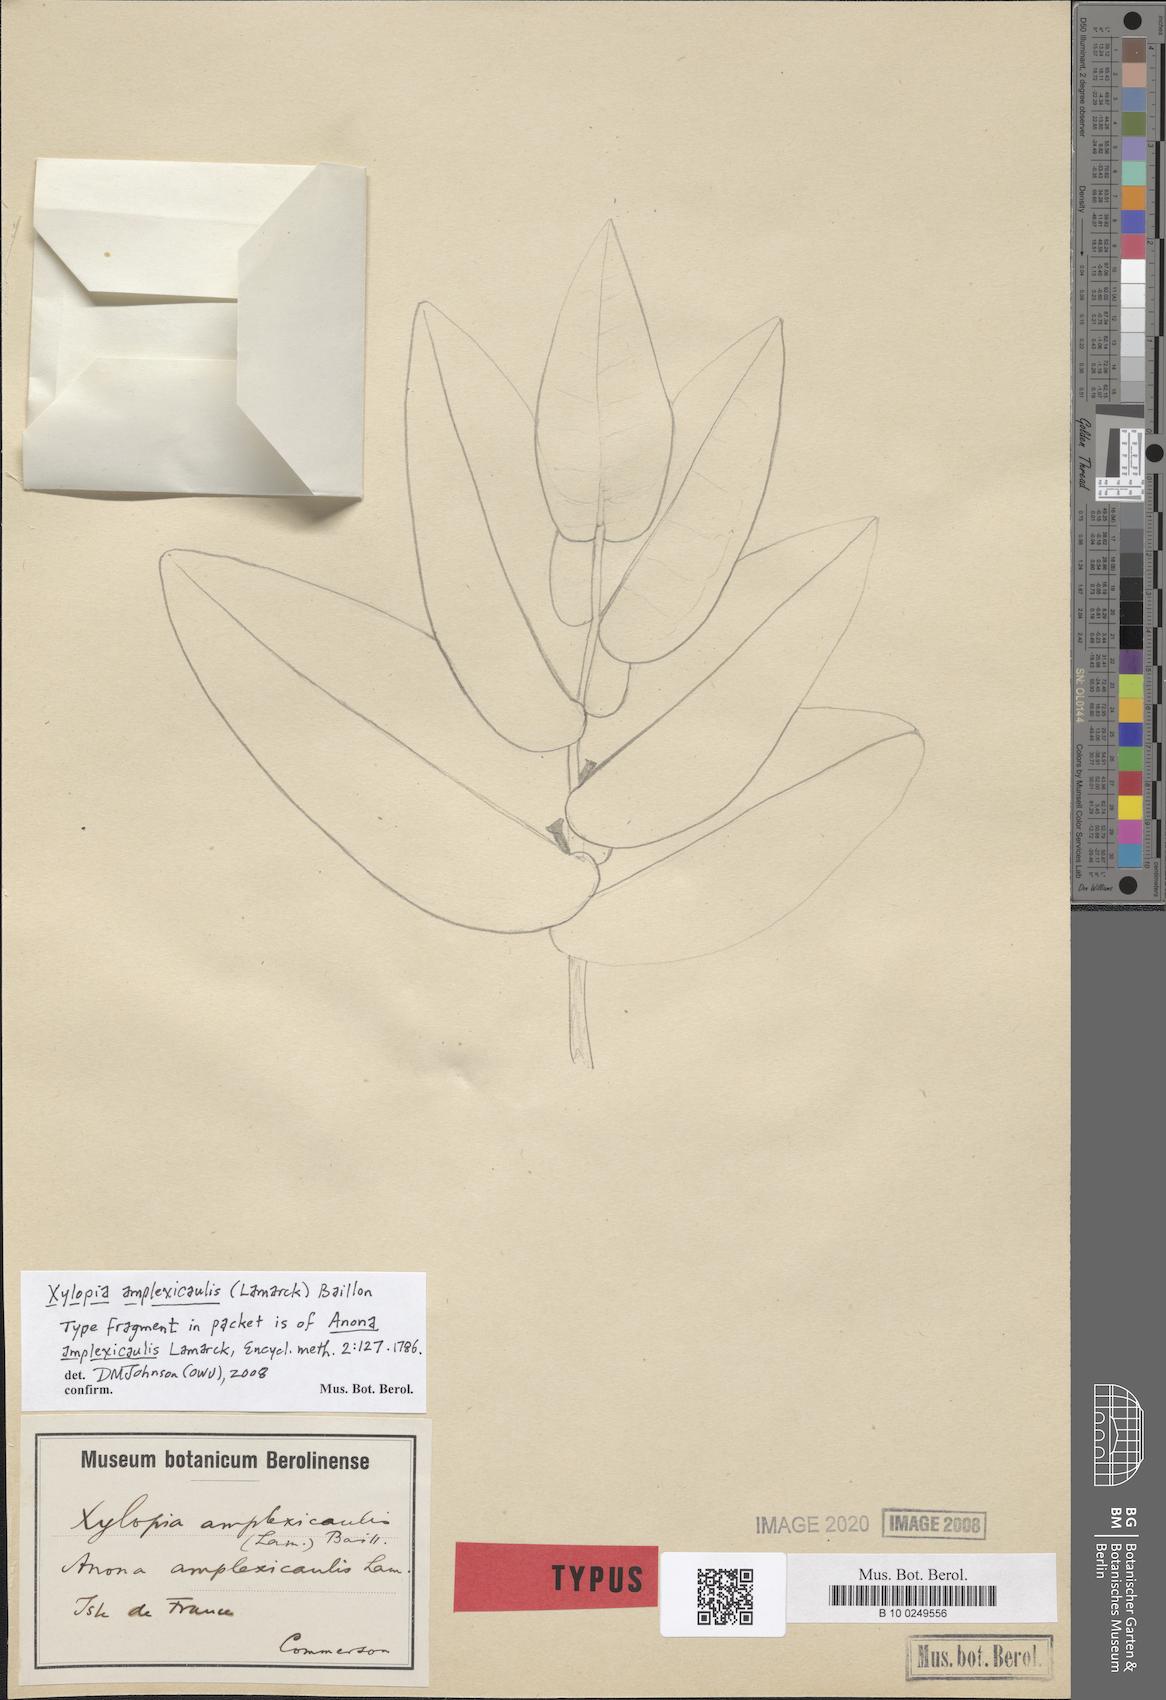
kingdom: Plantae
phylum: Tracheophyta
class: Magnoliopsida
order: Magnoliales
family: Annonaceae
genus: Xylopia
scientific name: Xylopia amplexicaulis
